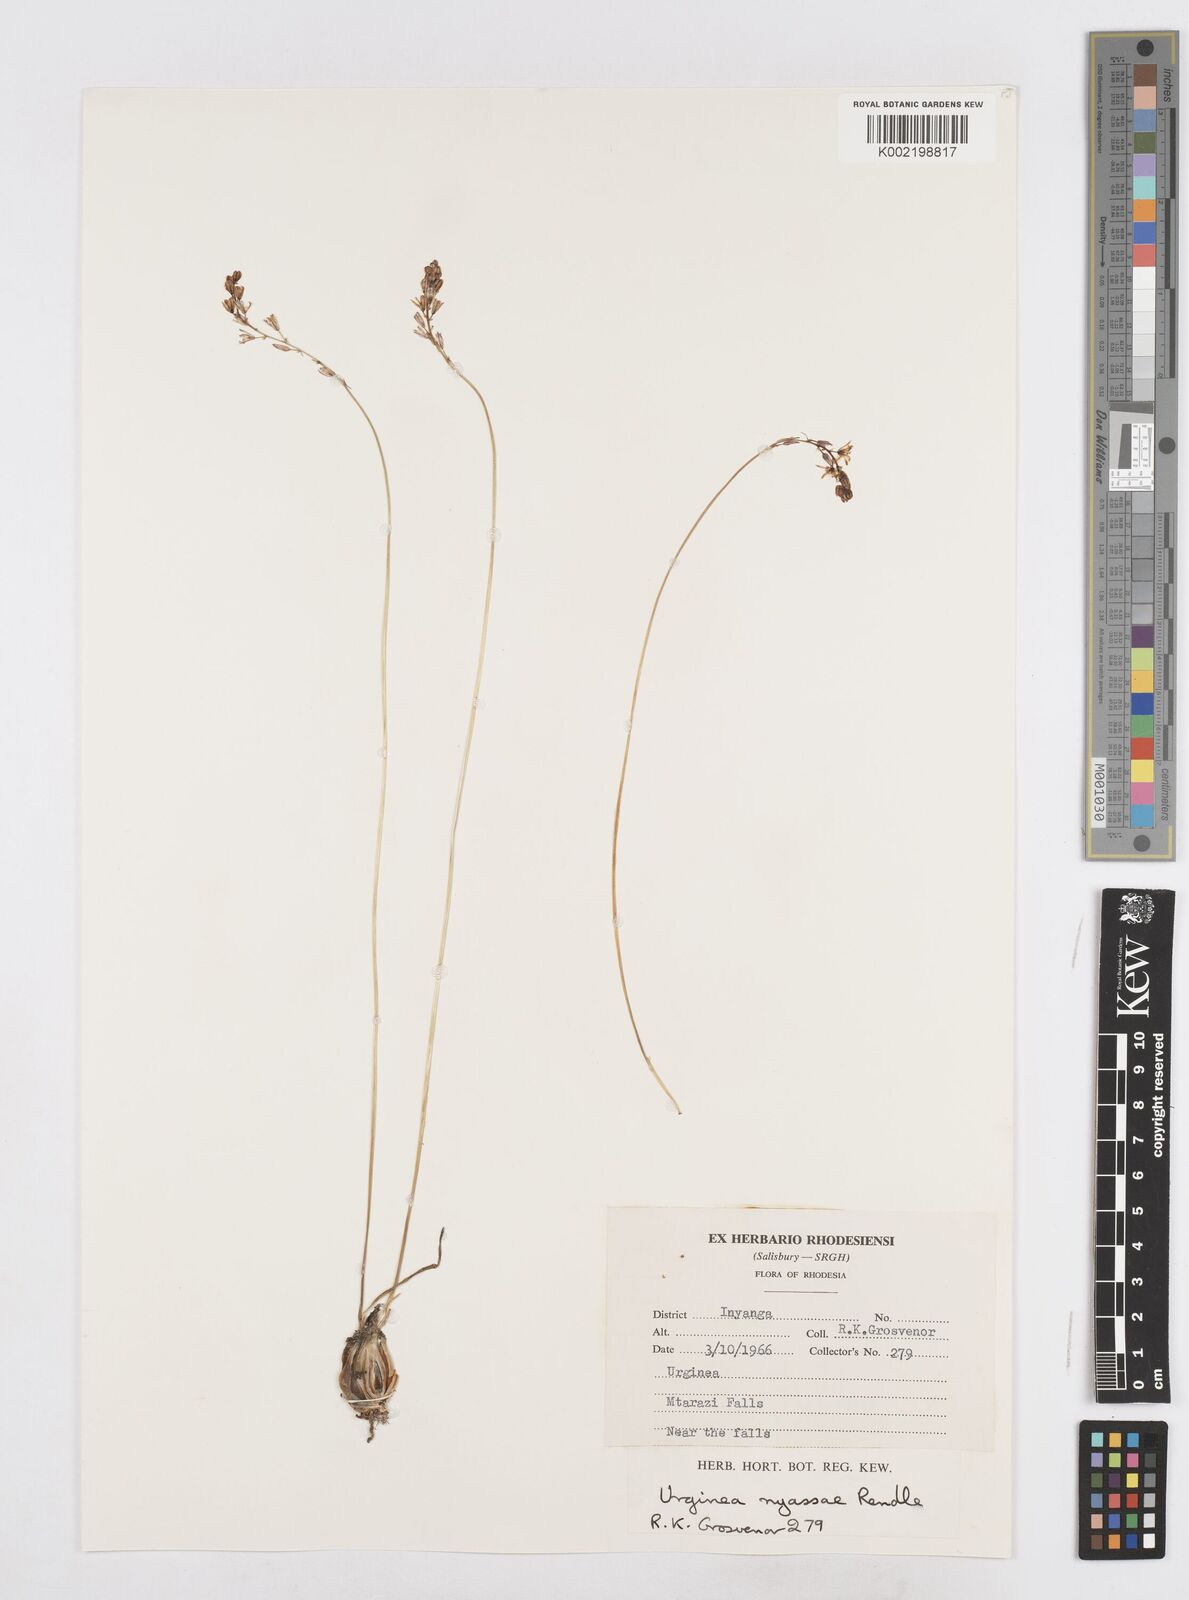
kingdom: Plantae
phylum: Tracheophyta
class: Liliopsida
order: Asparagales
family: Asparagaceae
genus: Drimia
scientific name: Drimia
